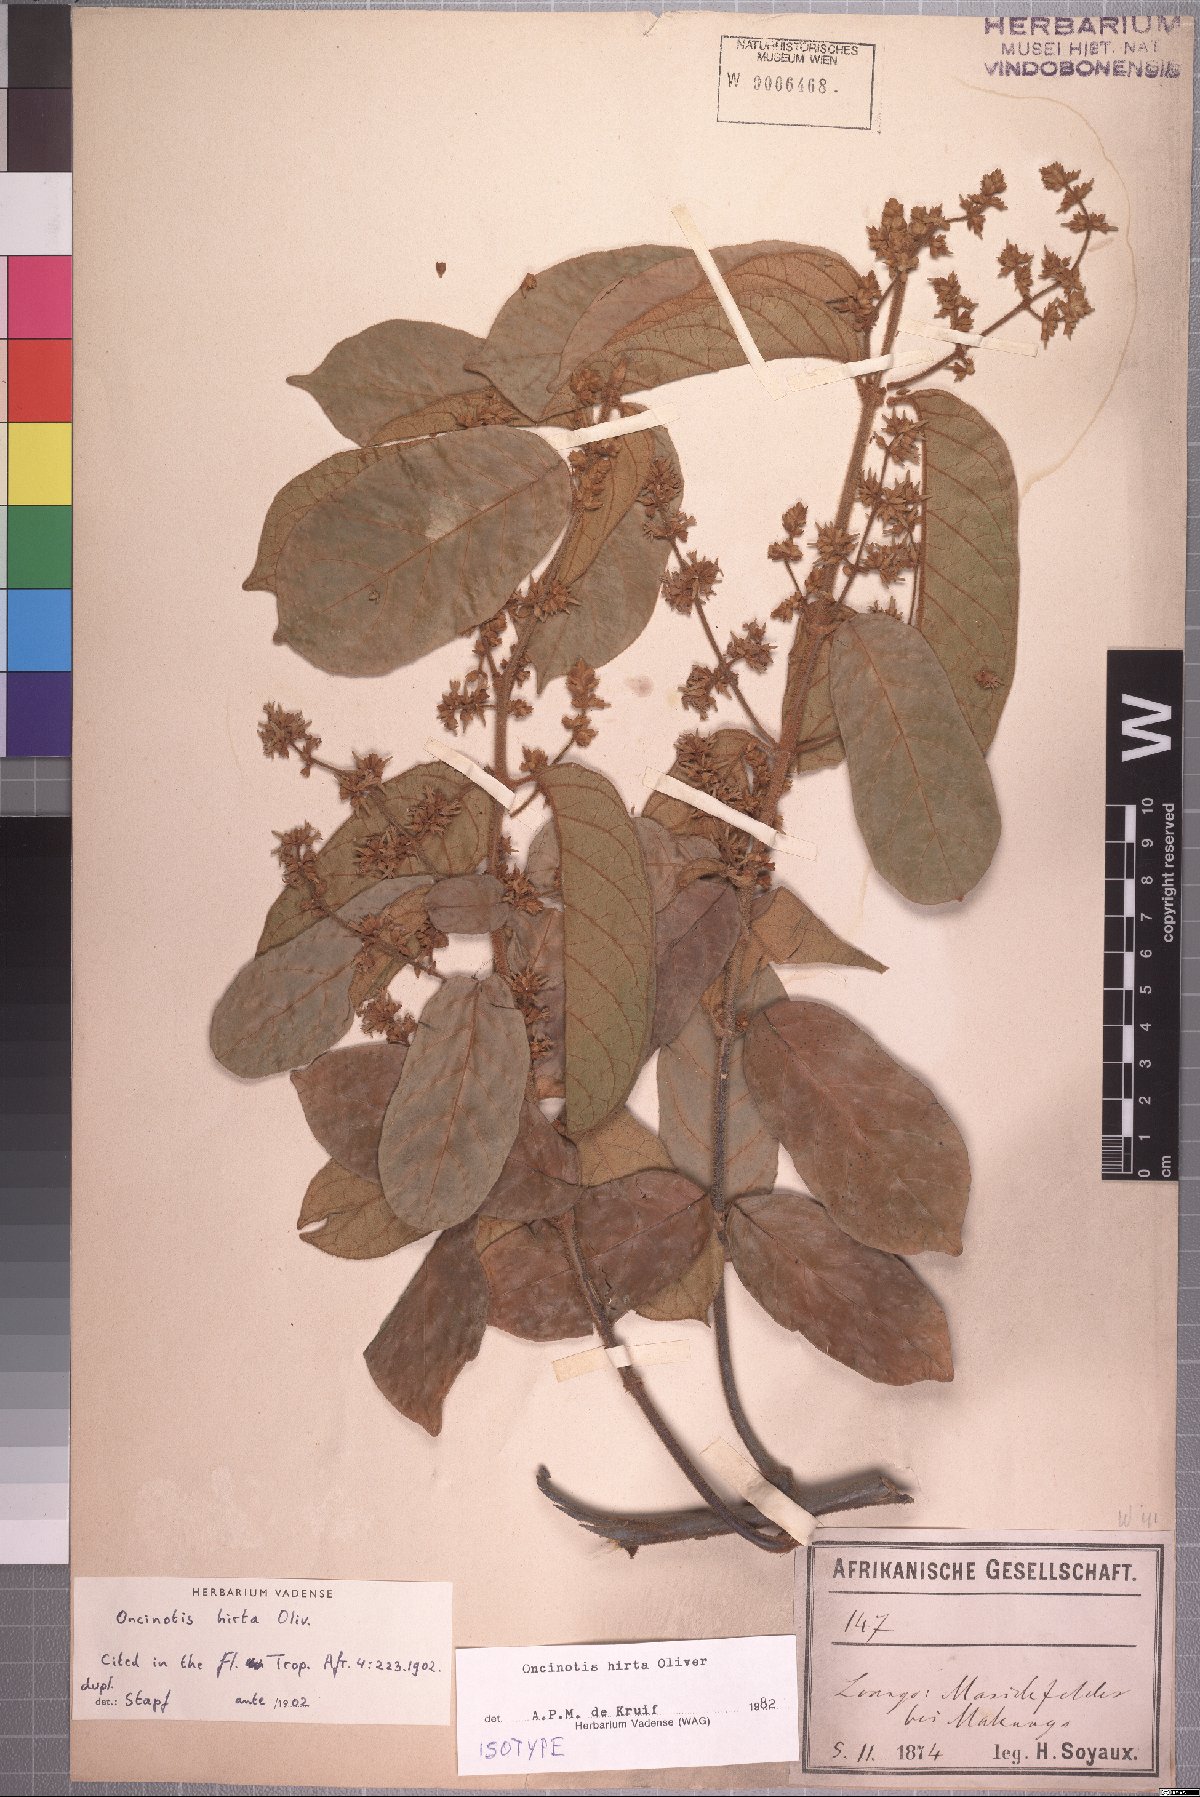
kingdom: Plantae
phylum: Tracheophyta
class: Magnoliopsida
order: Gentianales
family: Apocynaceae
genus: Oncinotis
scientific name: Oncinotis hirta
